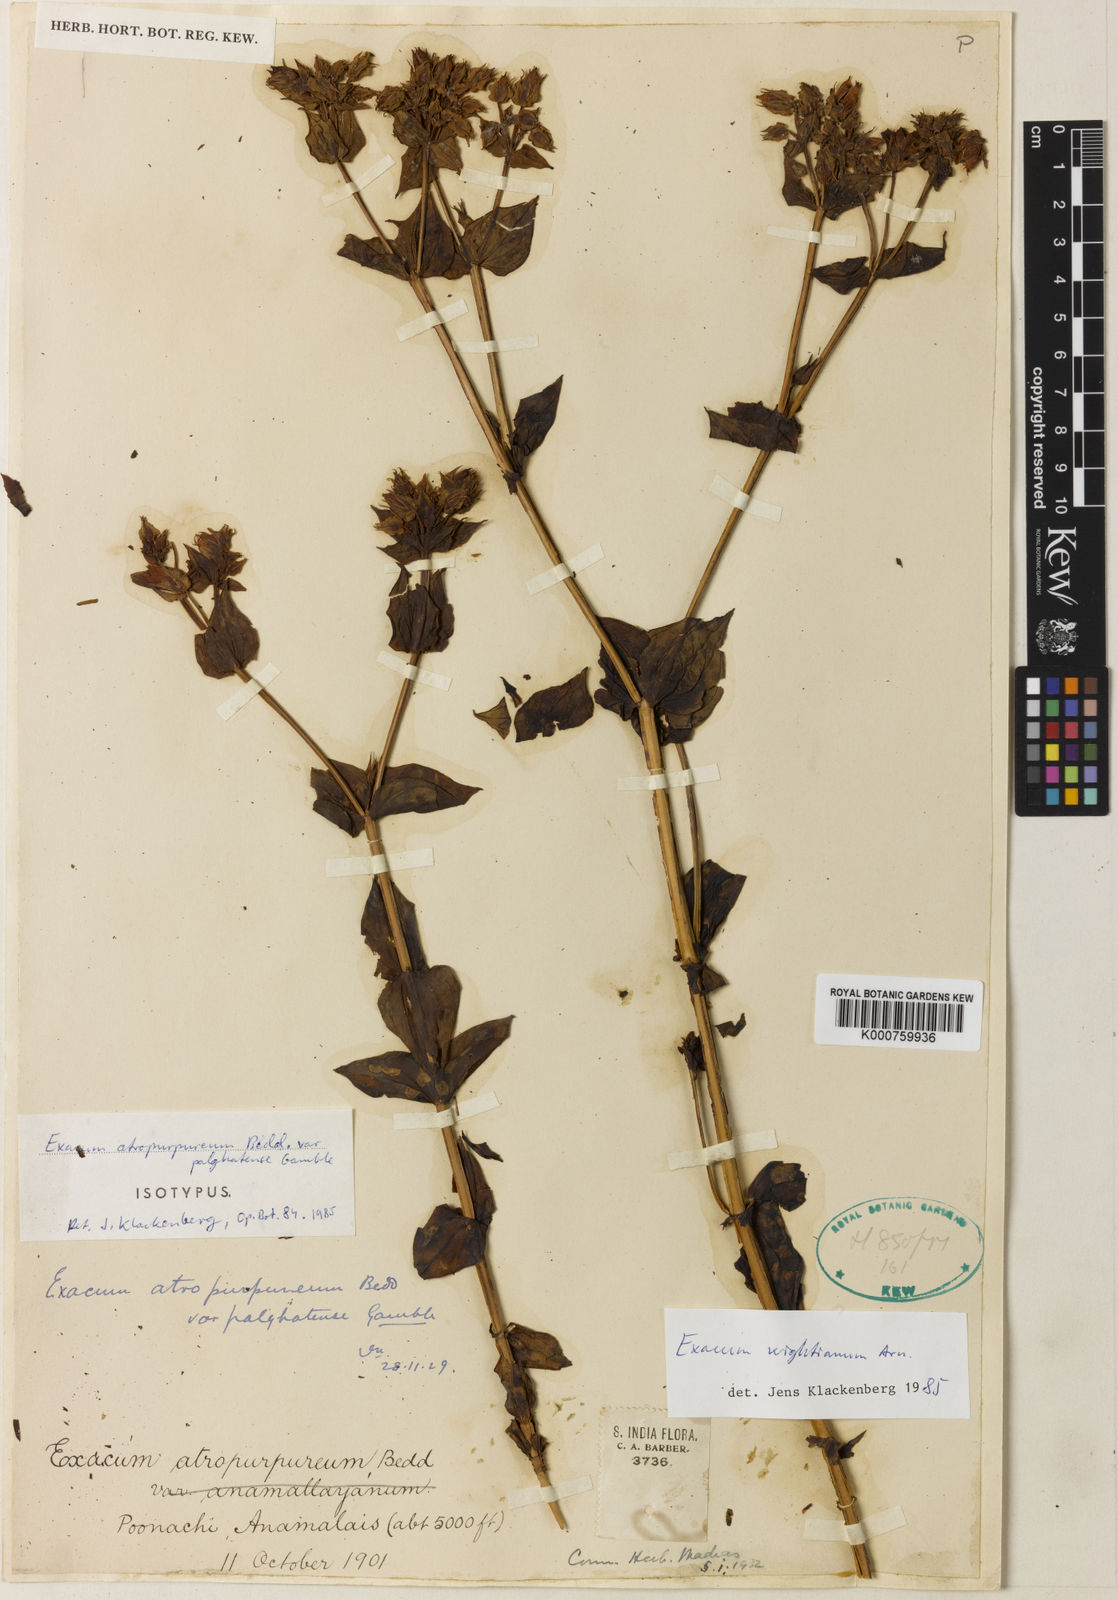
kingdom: Plantae
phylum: Tracheophyta
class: Magnoliopsida
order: Gentianales
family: Gentianaceae
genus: Exacum
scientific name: Exacum wightianum
